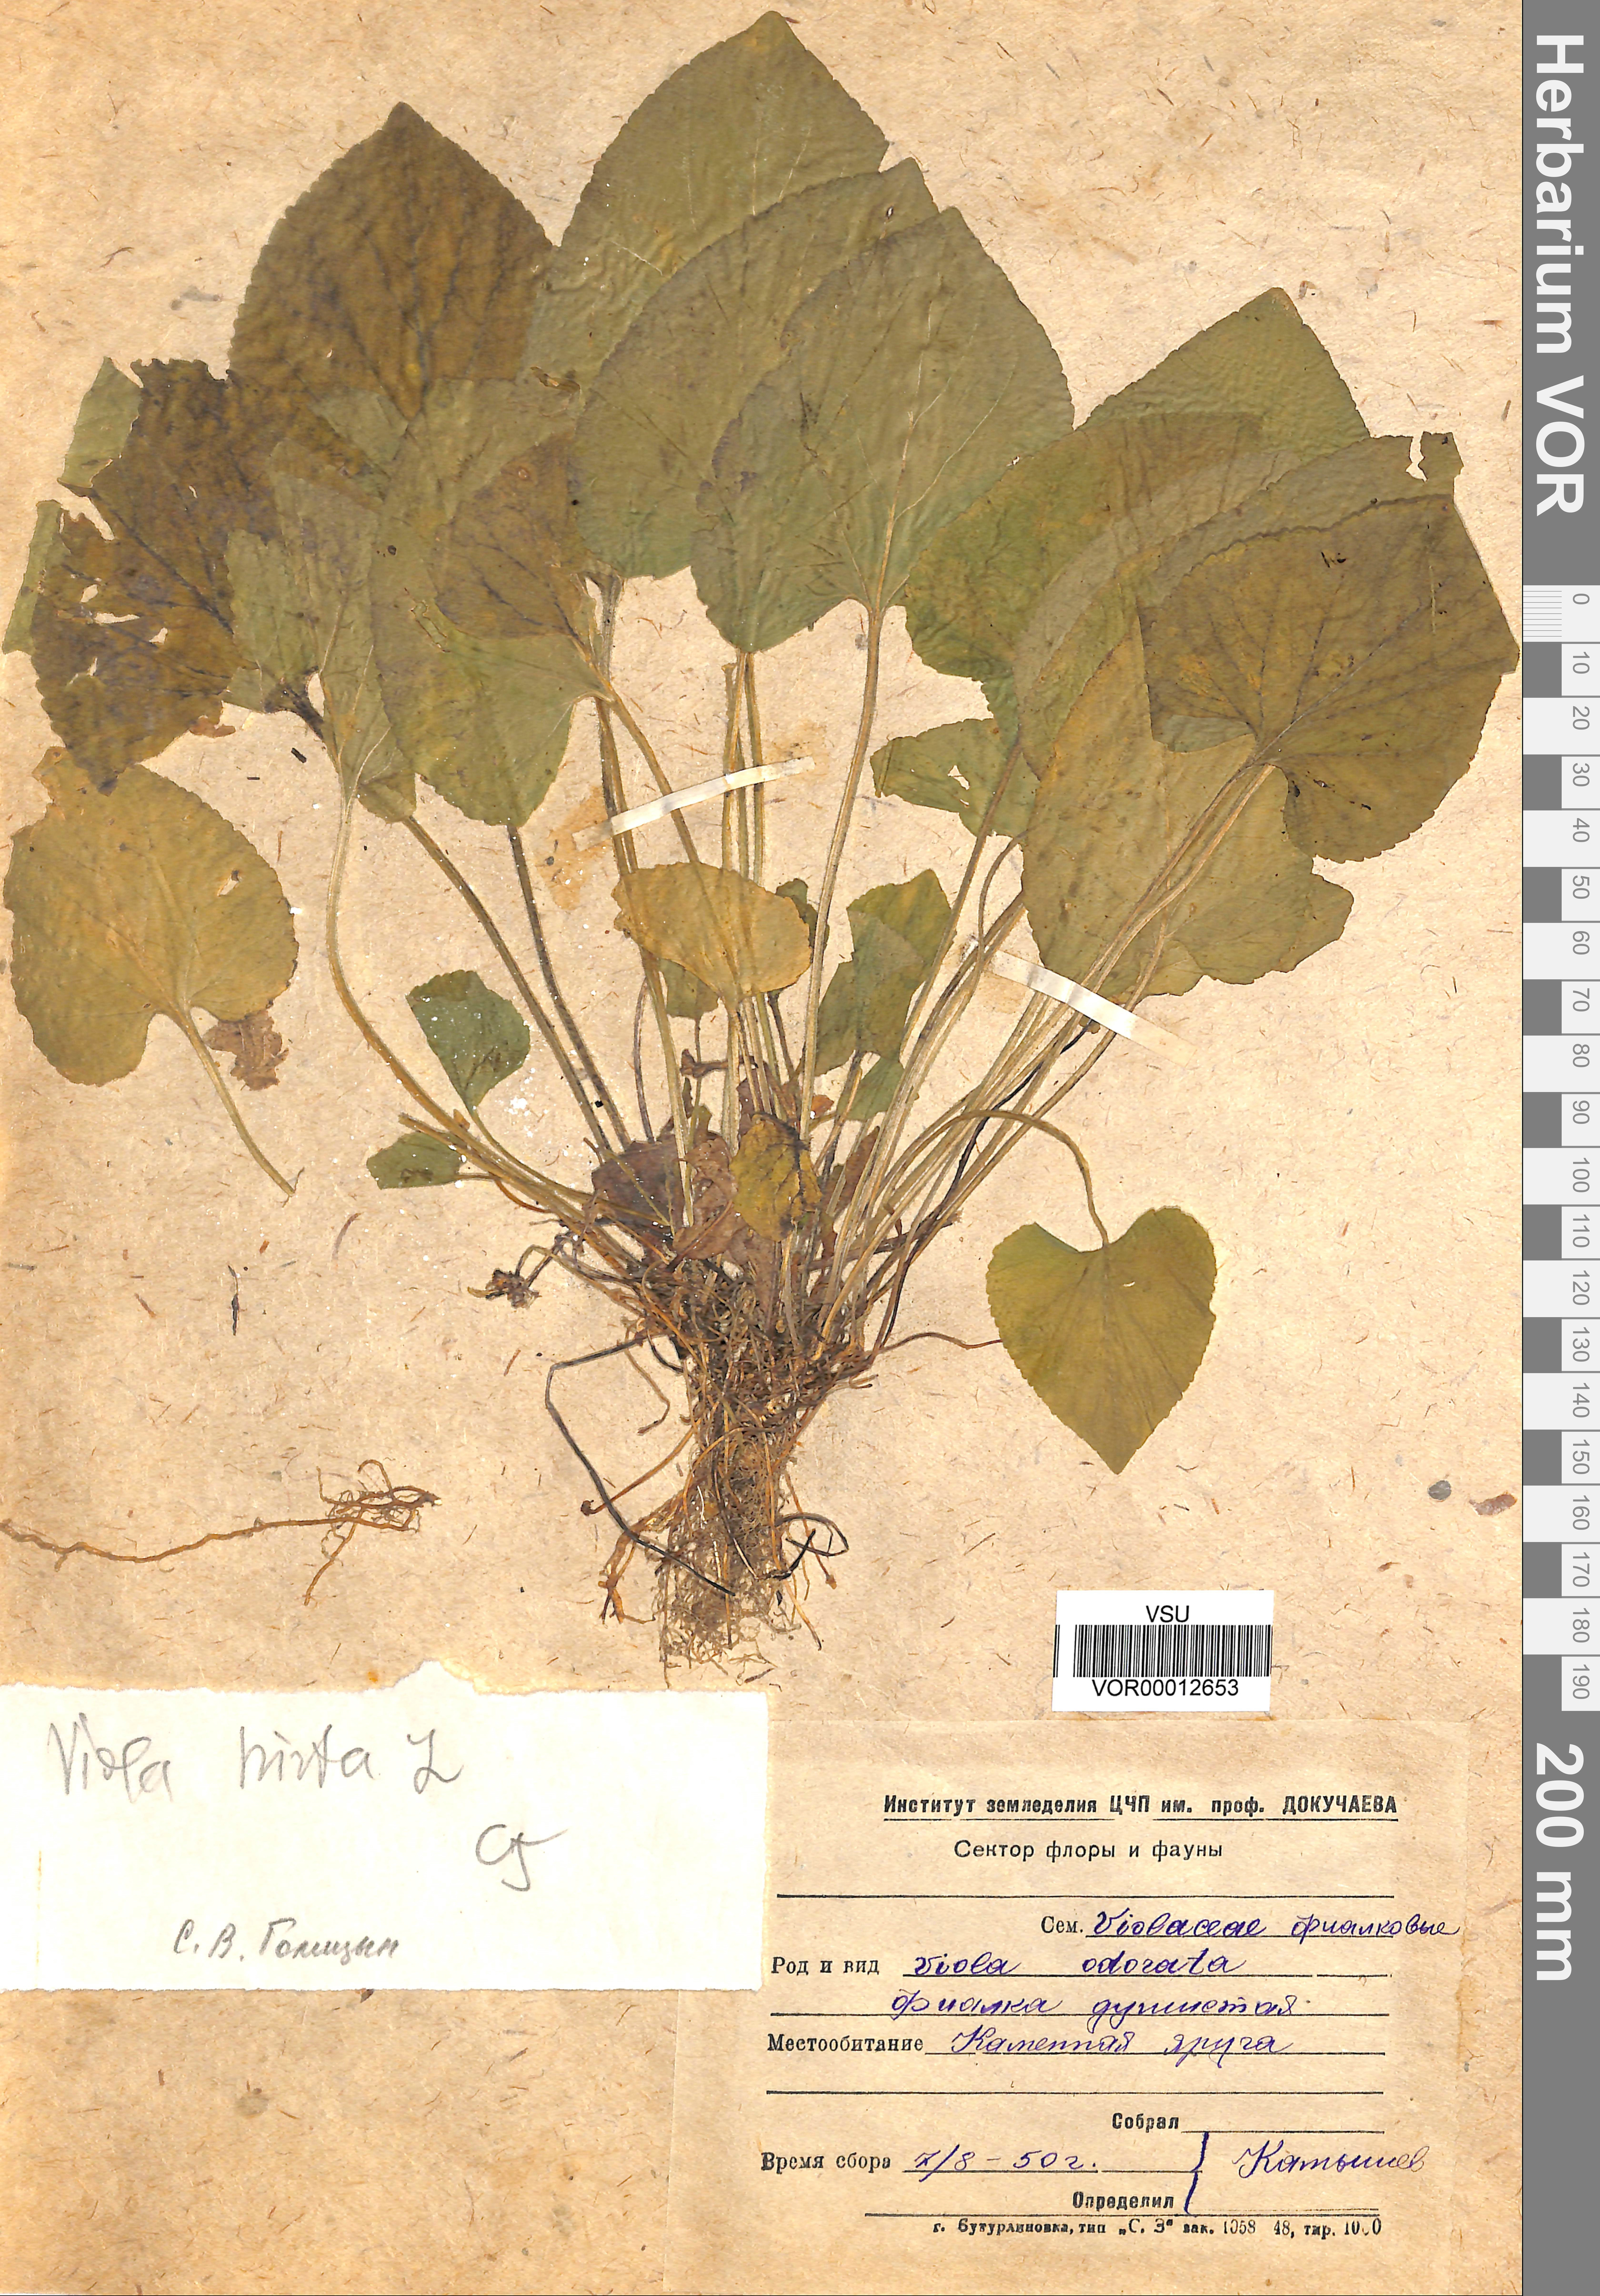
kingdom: Plantae
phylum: Tracheophyta
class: Magnoliopsida
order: Malpighiales
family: Violaceae
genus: Viola
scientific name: Viola odorata
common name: Sweet violet
